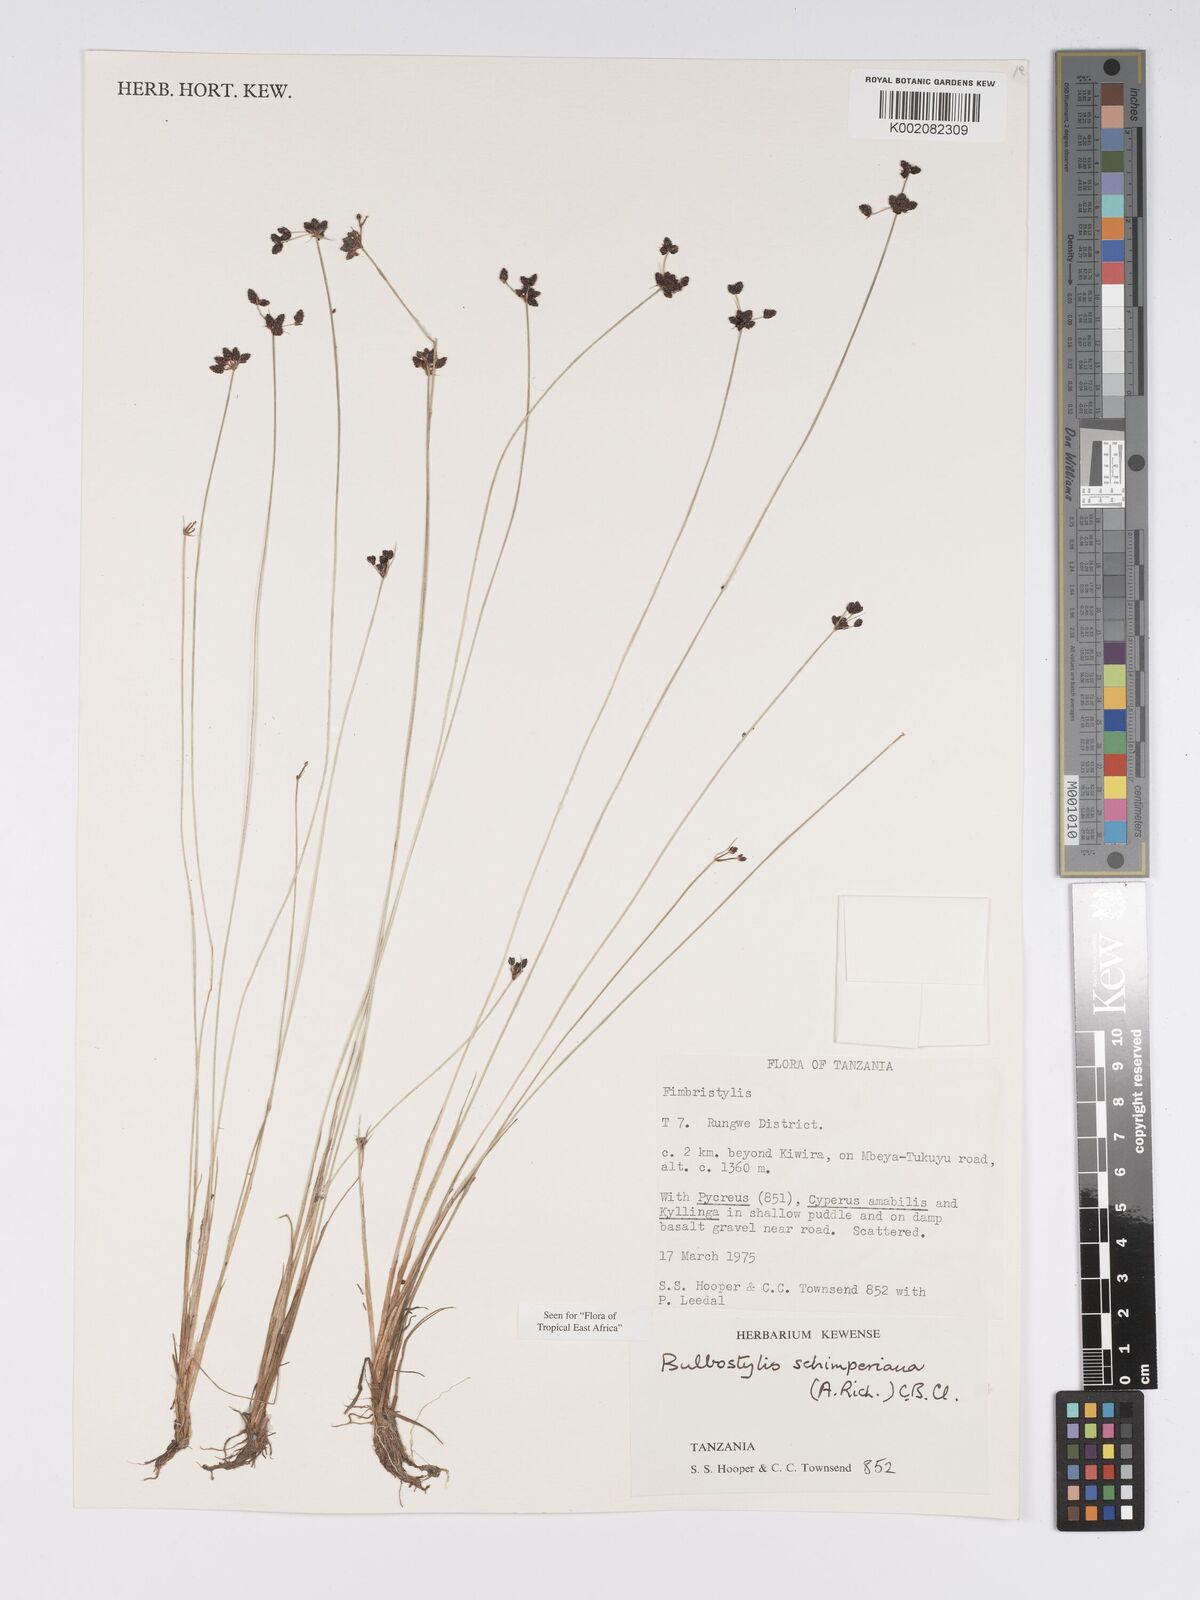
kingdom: Plantae
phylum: Tracheophyta
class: Liliopsida
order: Poales
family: Cyperaceae
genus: Bulbostylis
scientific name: Bulbostylis schimperiana
